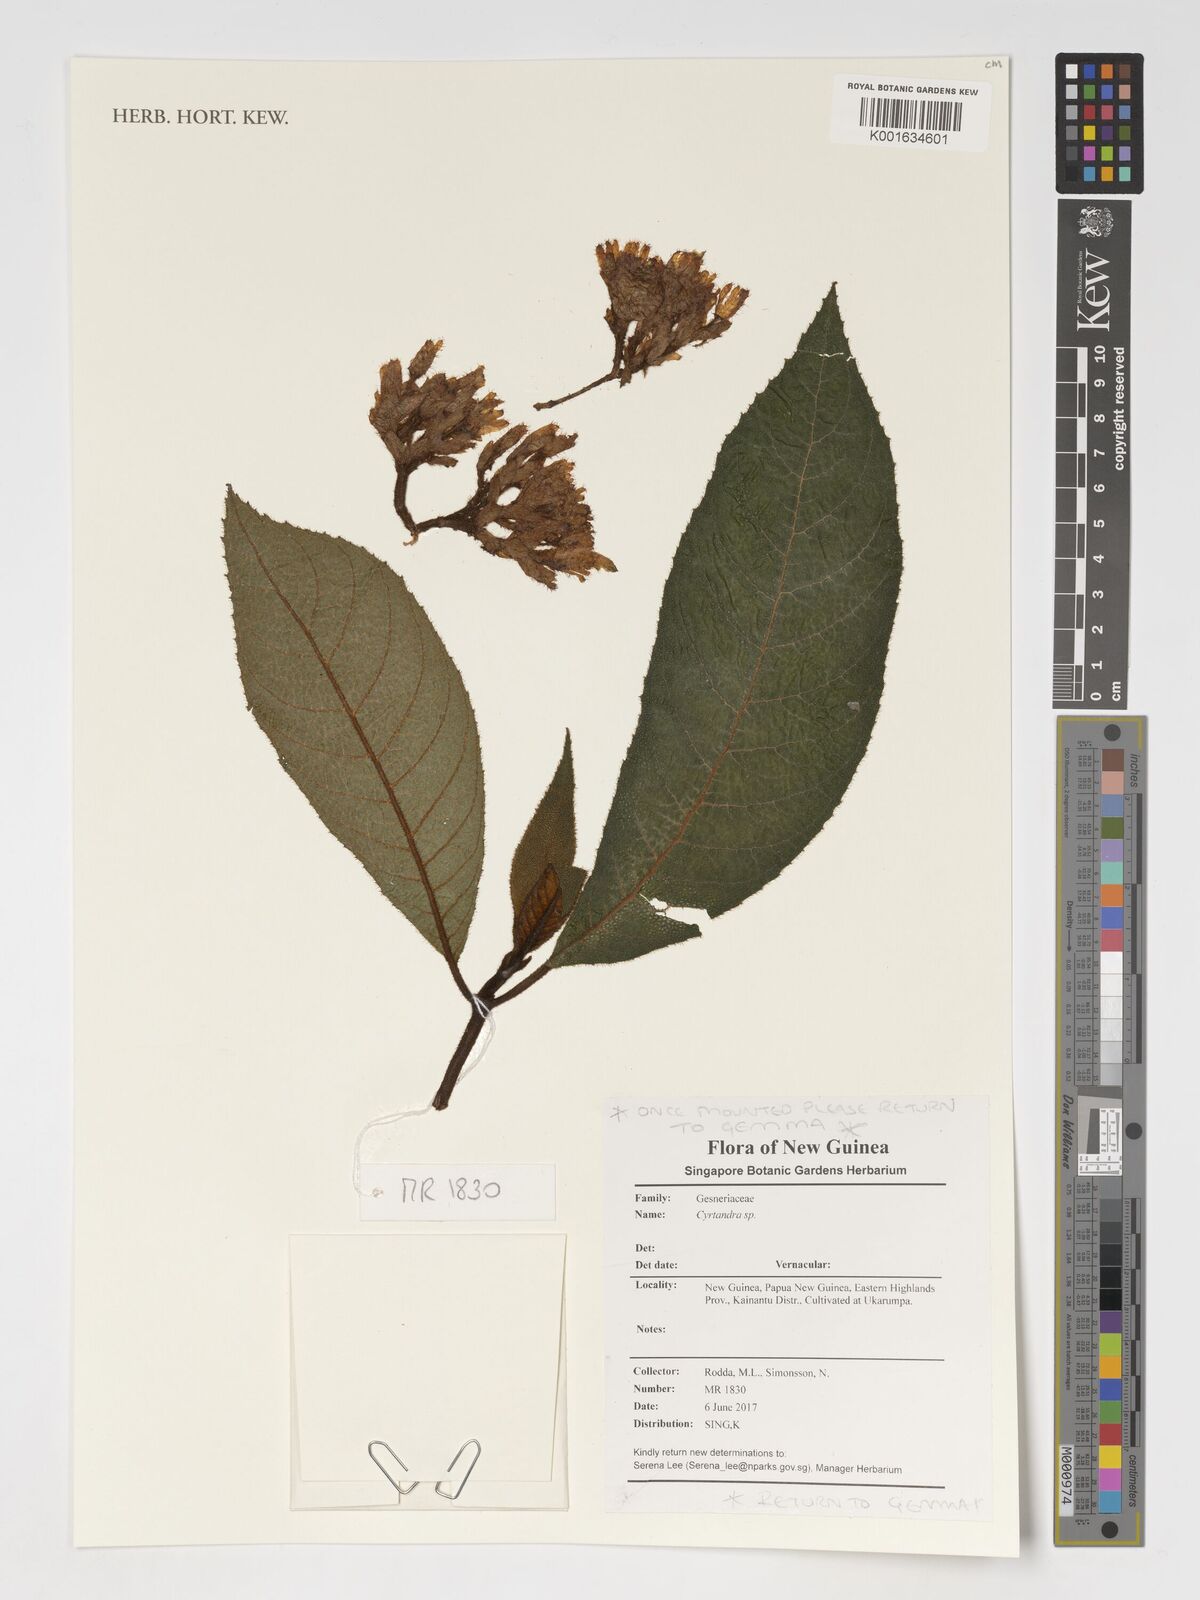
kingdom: Plantae
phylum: Tracheophyta
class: Magnoliopsida
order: Lamiales
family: Gesneriaceae
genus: Cyrtandra
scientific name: Cyrtandra
